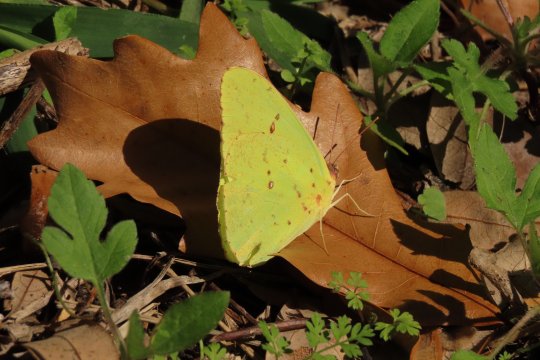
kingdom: Animalia
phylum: Arthropoda
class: Insecta
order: Lepidoptera
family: Pieridae
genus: Phoebis
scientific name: Phoebis agarithe
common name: Large Orange Sulphur
